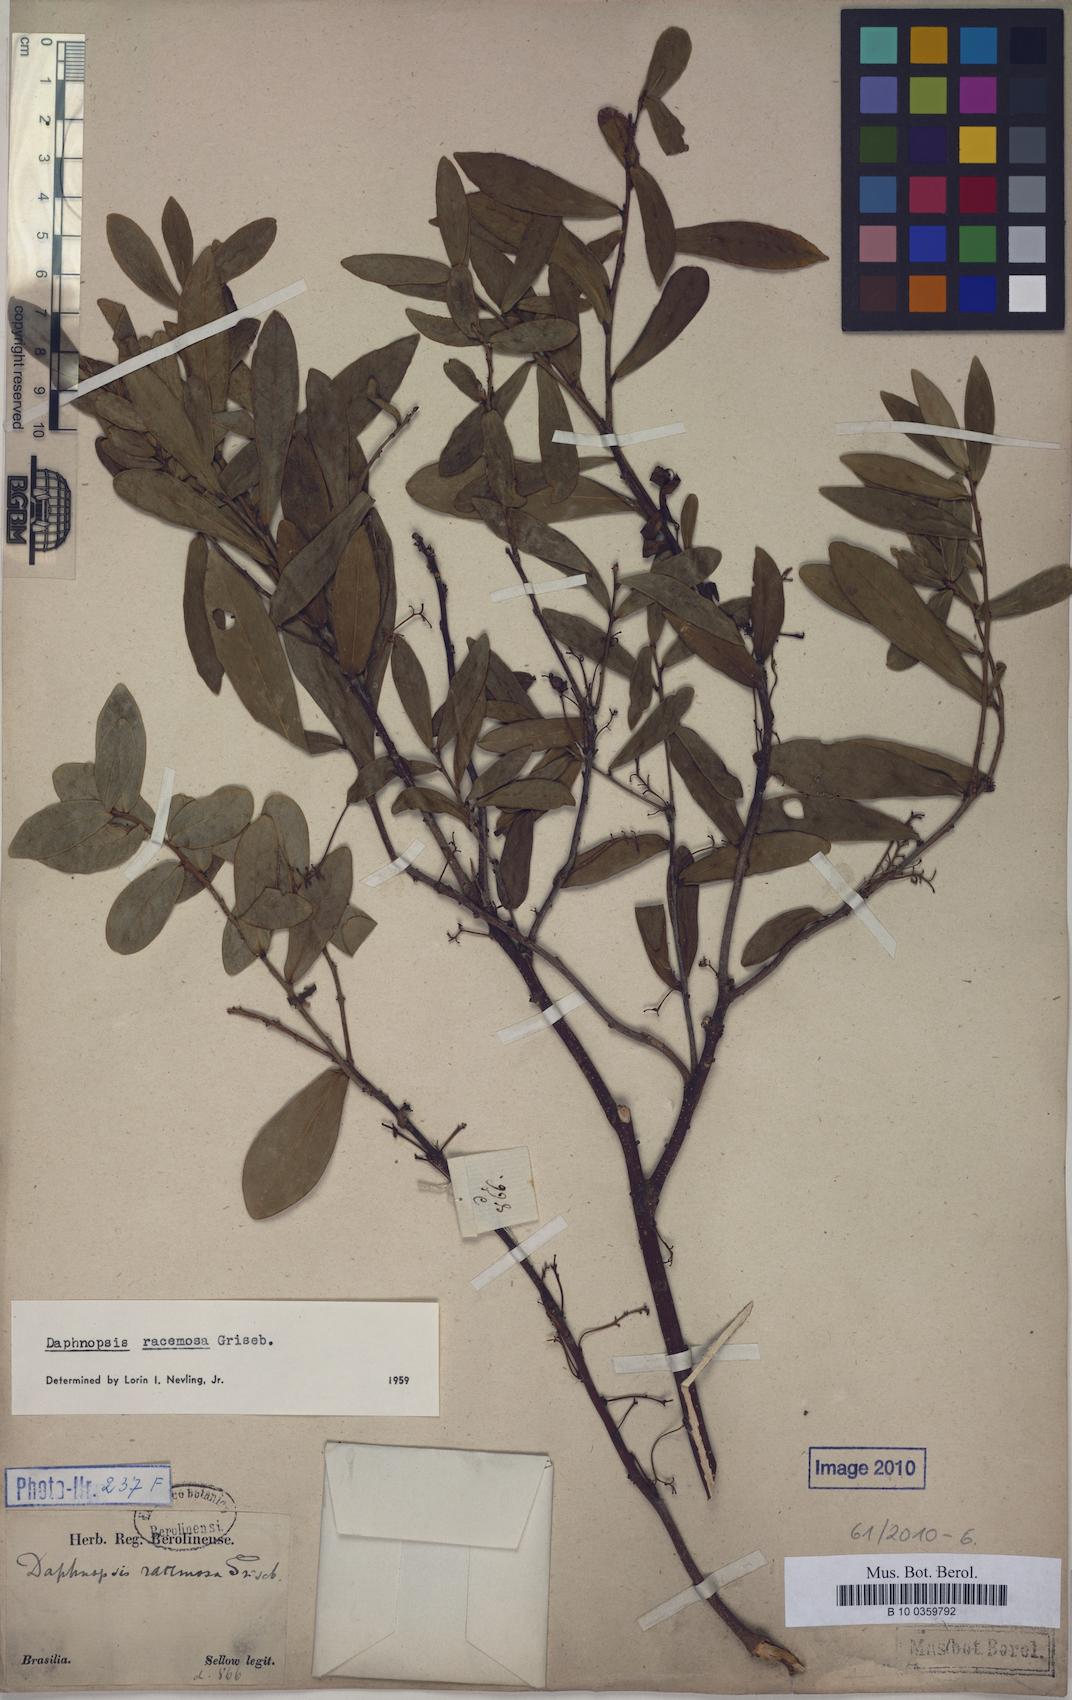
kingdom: Plantae
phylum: Tracheophyta
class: Magnoliopsida
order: Malvales
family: Thymelaeaceae
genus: Daphnopsis
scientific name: Daphnopsis racemosa
